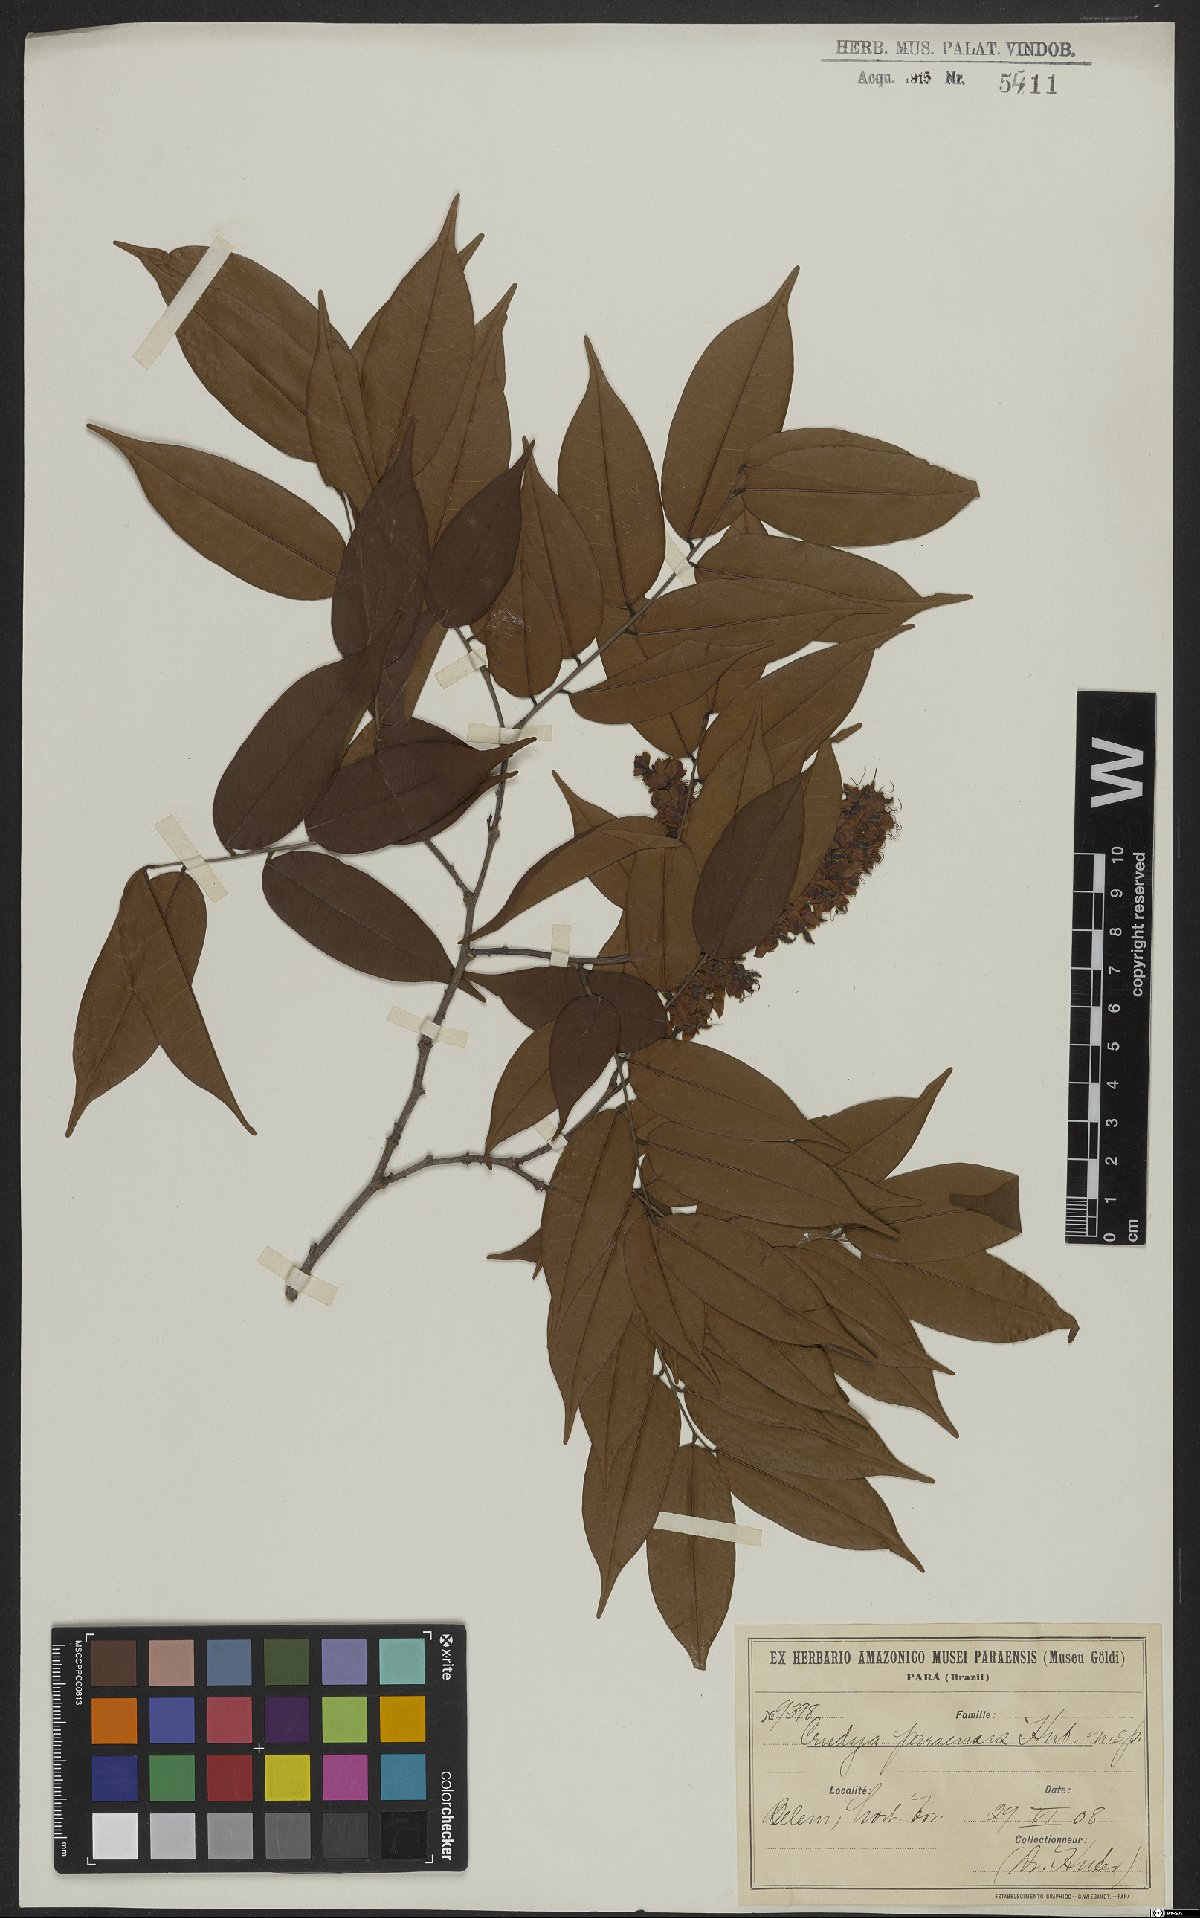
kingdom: Plantae
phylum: Tracheophyta
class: Magnoliopsida
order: Fabales
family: Fabaceae
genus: Crudia
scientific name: Crudia bracteata
